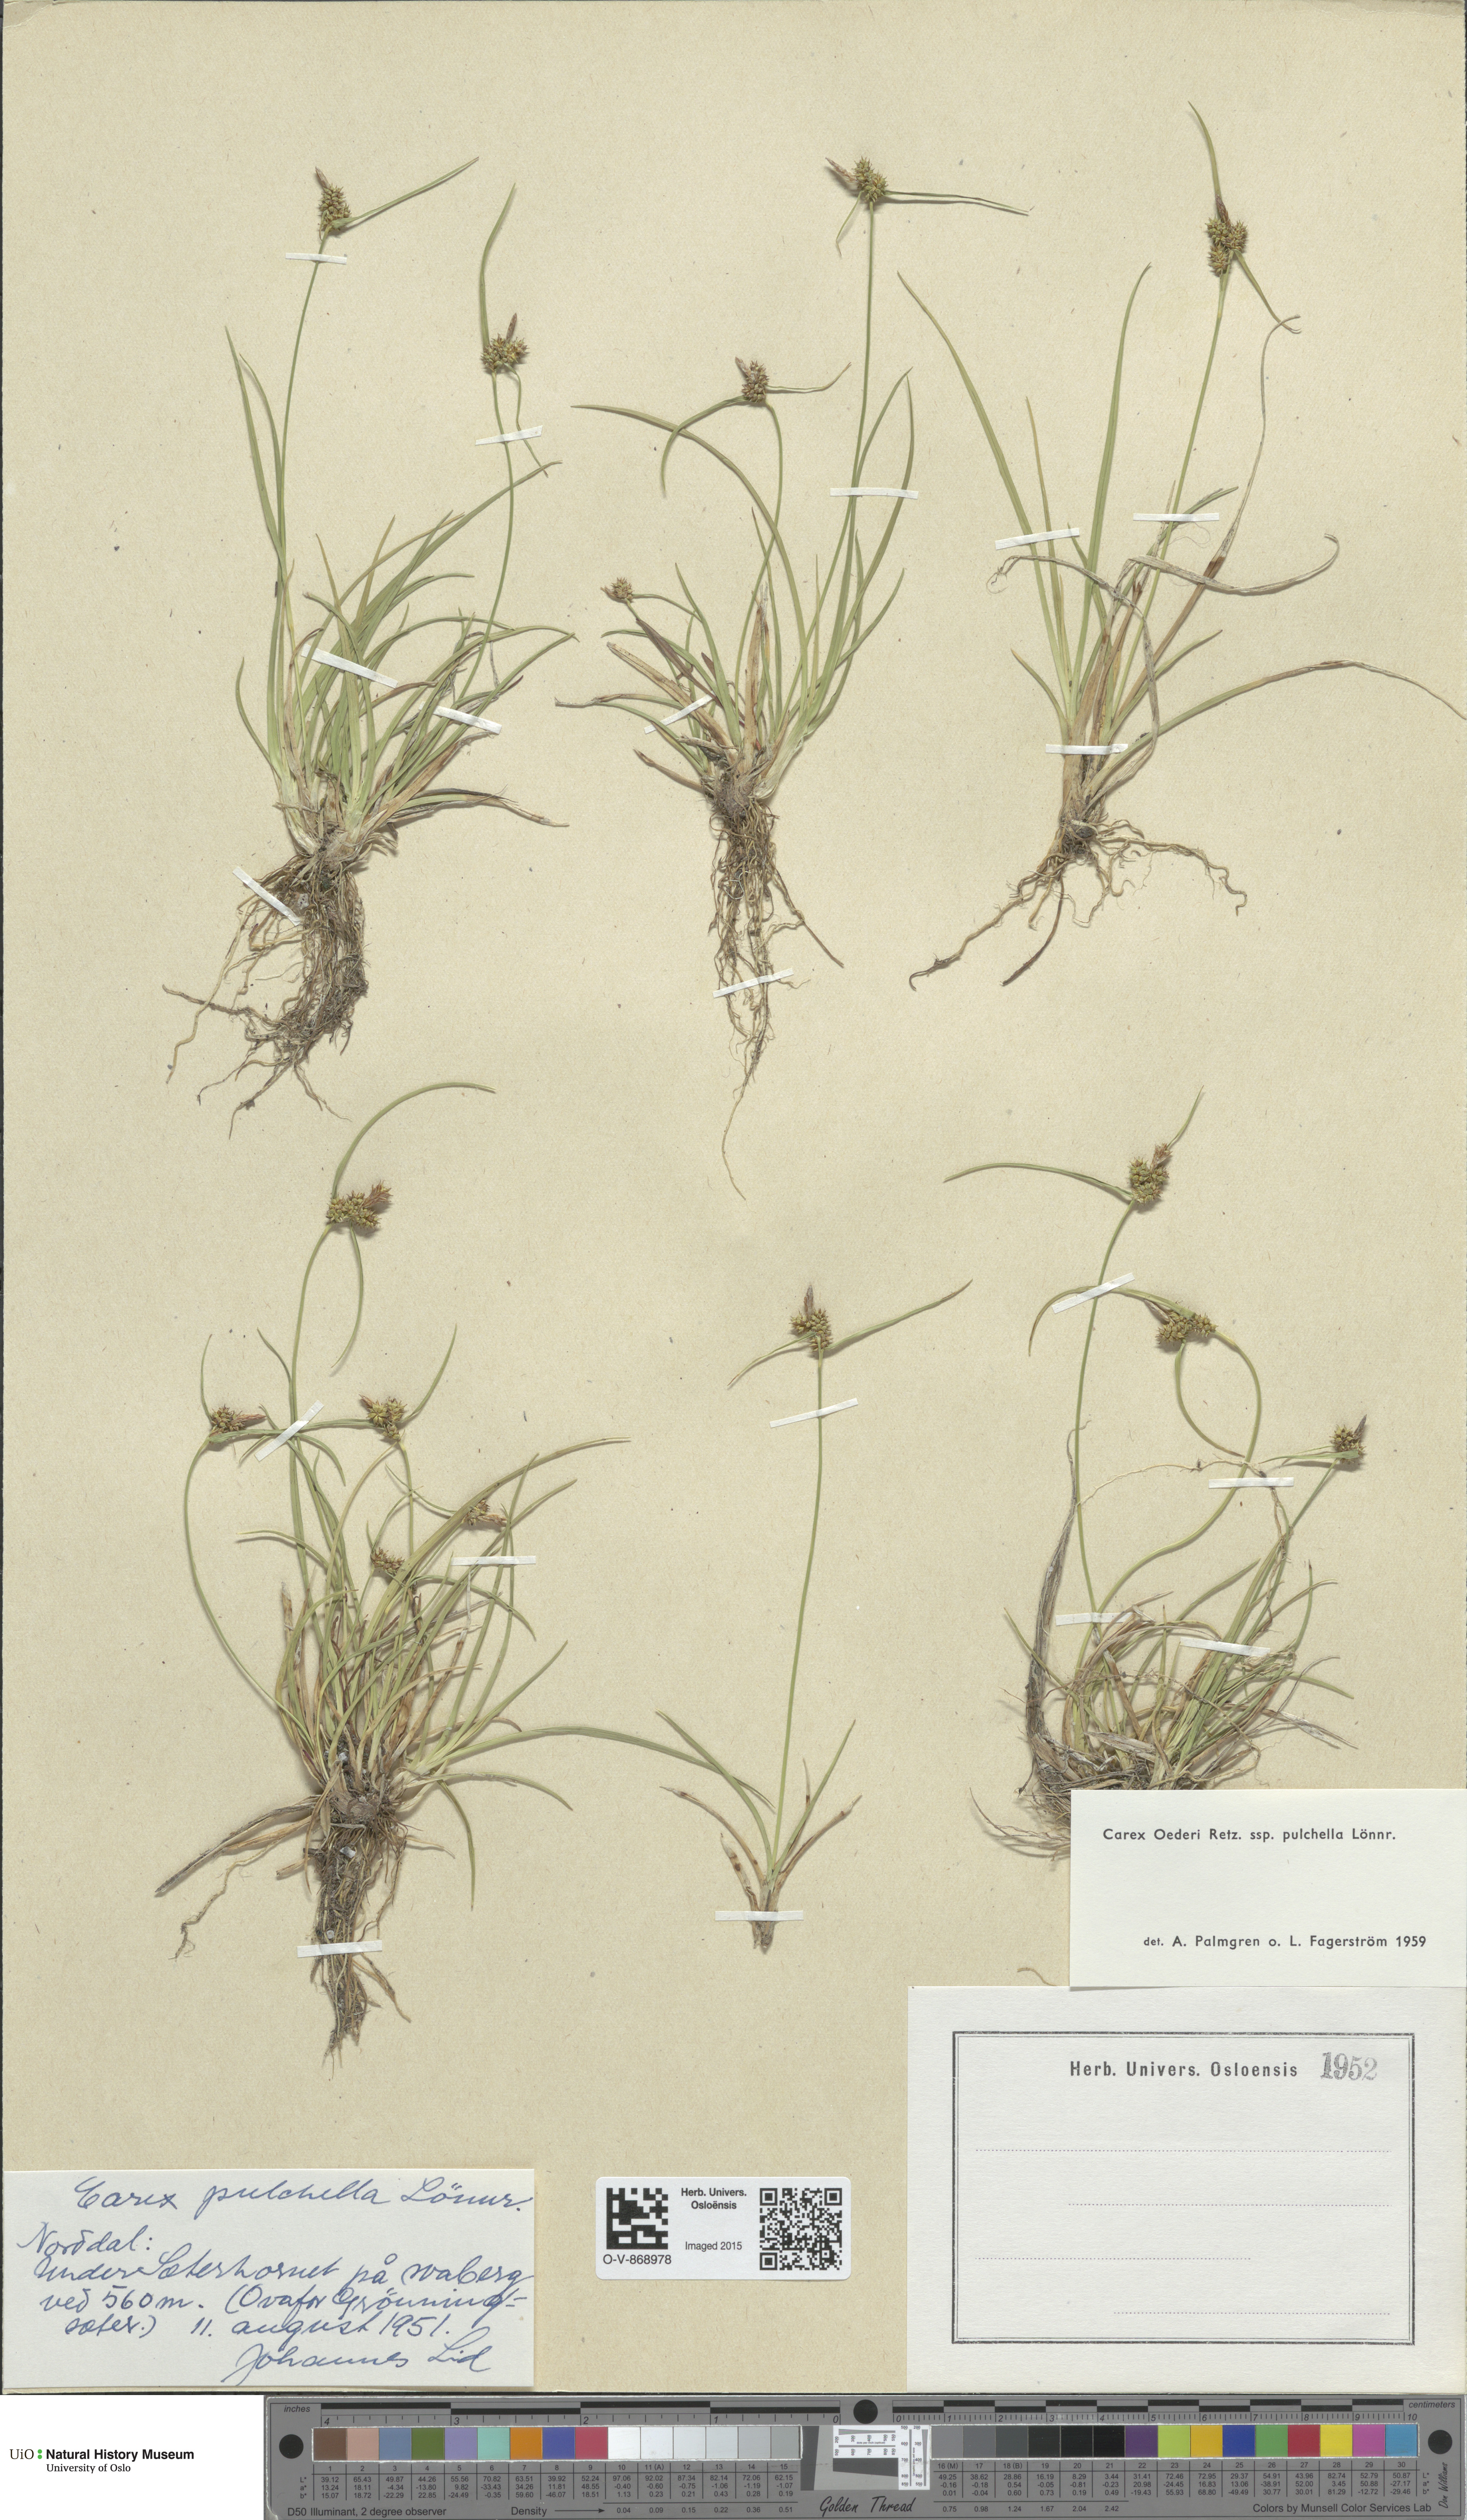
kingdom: Plantae
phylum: Tracheophyta
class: Liliopsida
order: Poales
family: Cyperaceae
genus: Carex
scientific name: Carex oederi
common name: Common & small-fruited yellow-sedge
